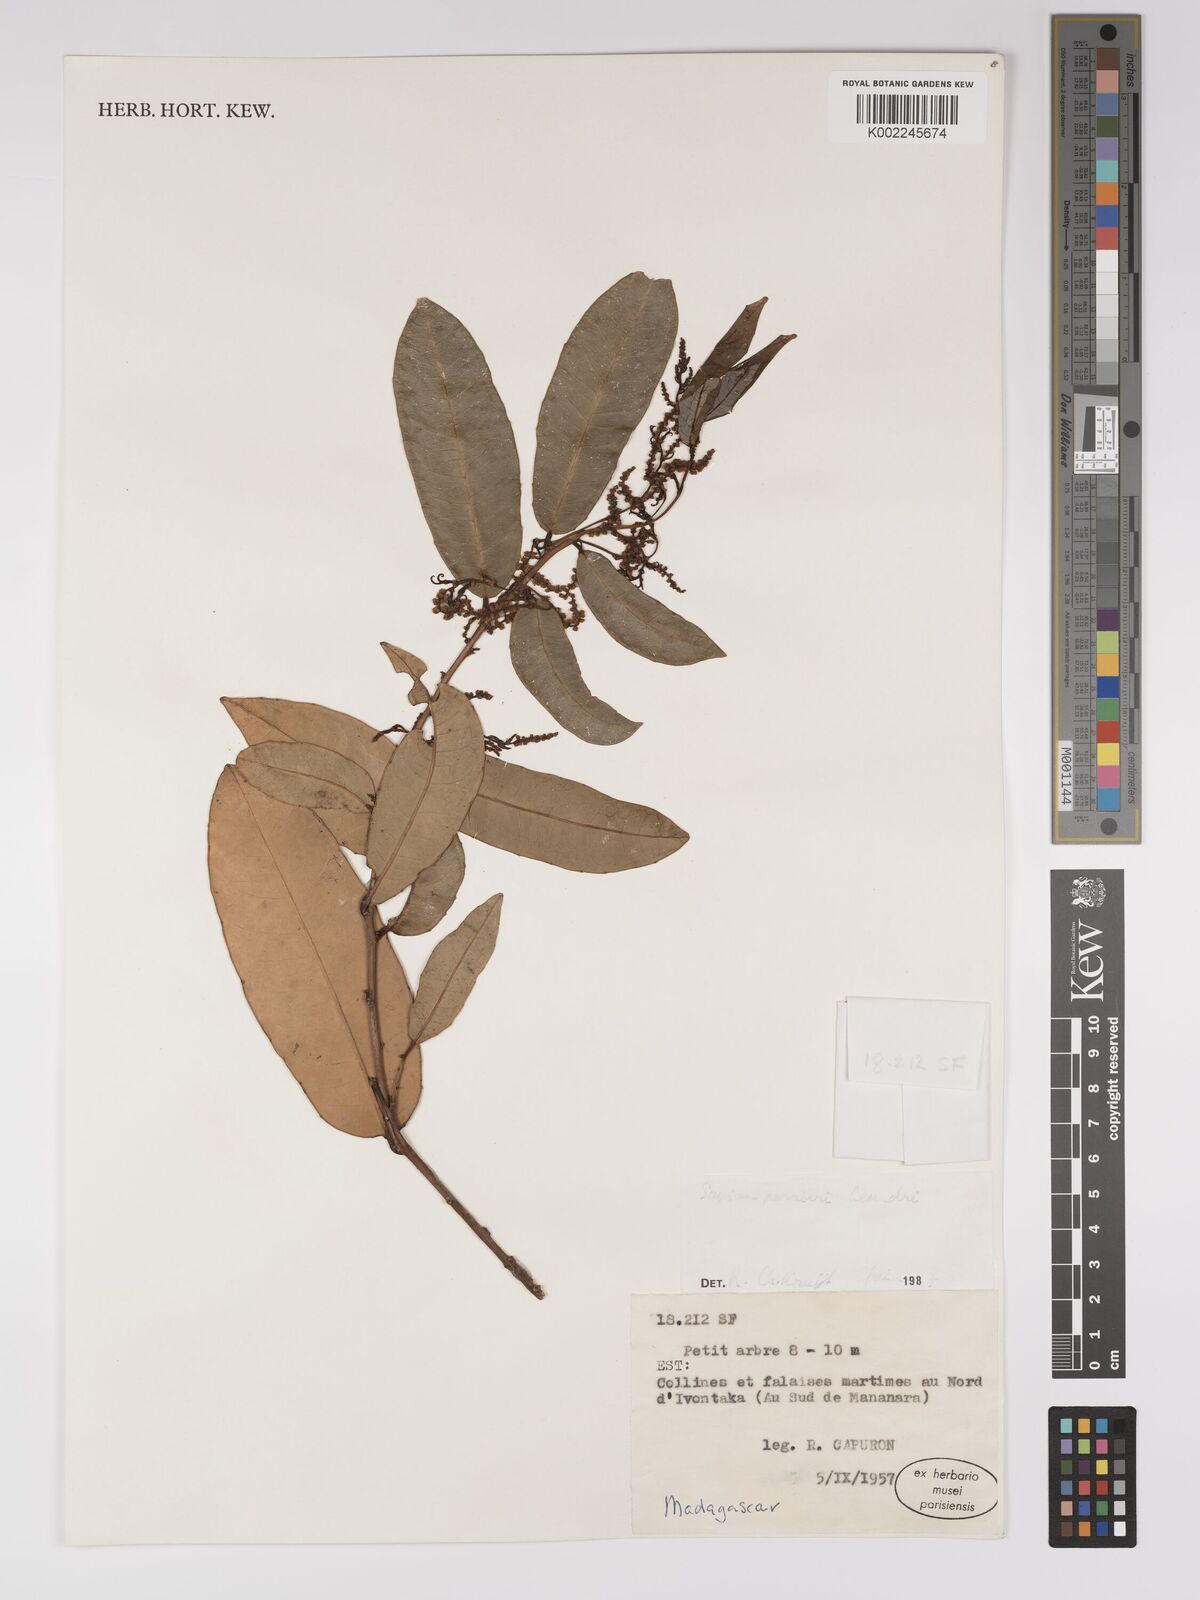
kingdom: Plantae
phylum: Tracheophyta
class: Magnoliopsida
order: Malpighiales
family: Euphorbiaceae
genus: Anomostachys
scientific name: Anomostachys lastellei
